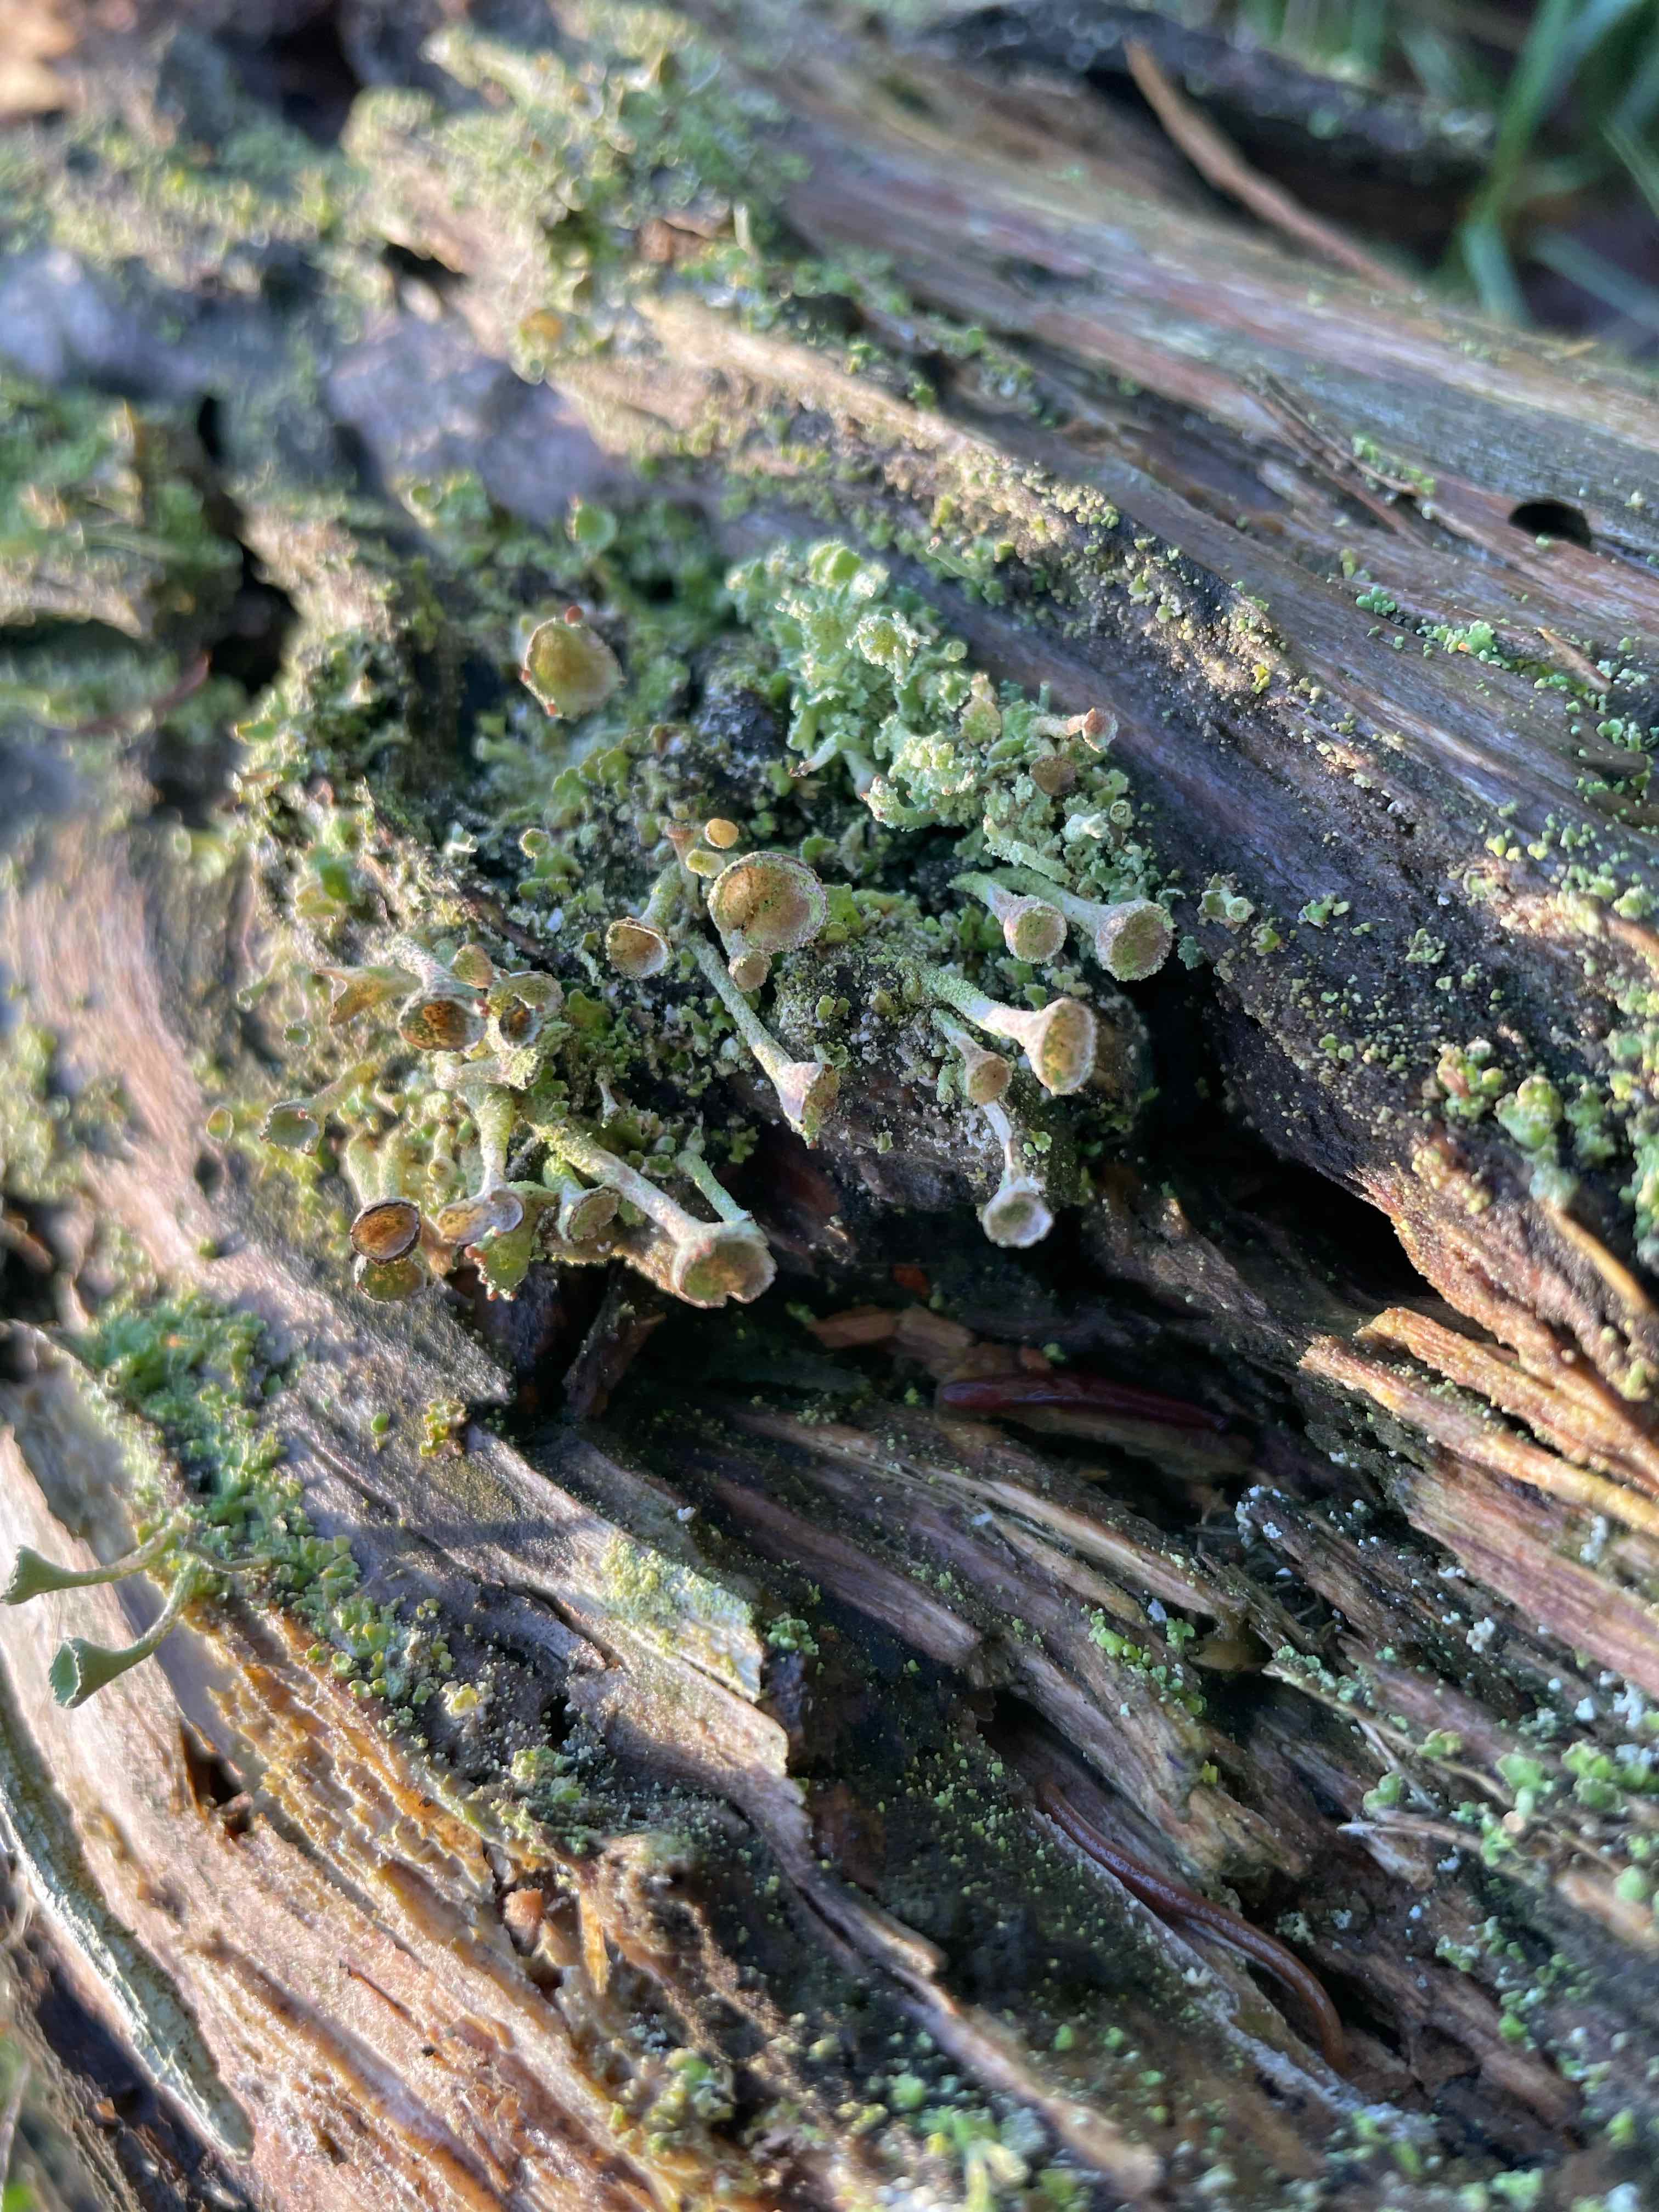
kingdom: Fungi
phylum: Ascomycota
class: Lecanoromycetes
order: Lecanorales
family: Cladoniaceae
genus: Cladonia
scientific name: Cladonia
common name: brungrøn bægerlav
